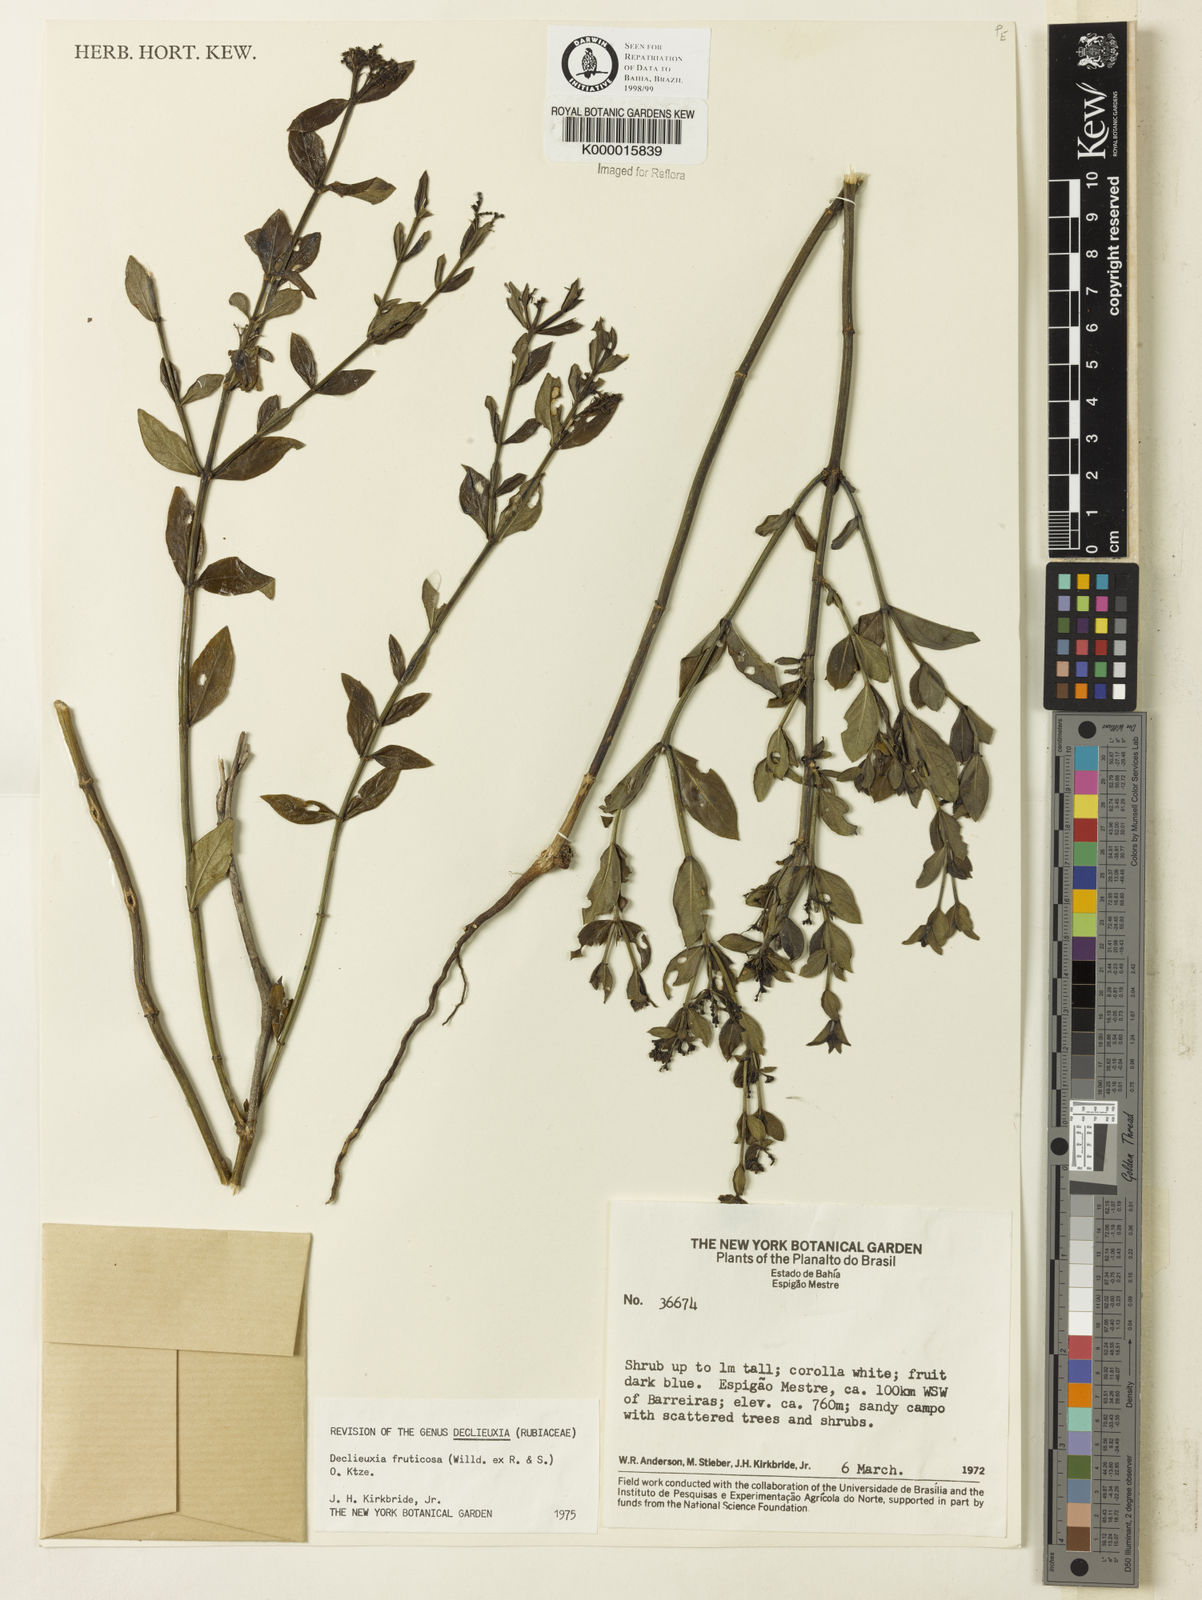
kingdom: Plantae
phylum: Tracheophyta
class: Magnoliopsida
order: Gentianales
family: Rubiaceae
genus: Declieuxia
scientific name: Declieuxia fruticosa
